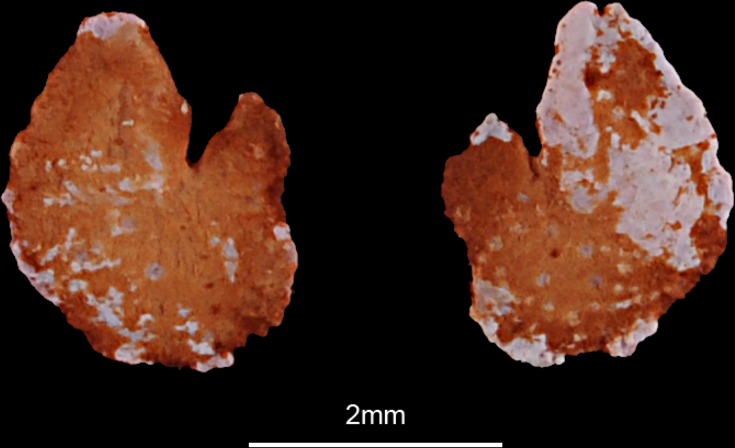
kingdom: Animalia
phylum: Chordata
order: Cypriniformes
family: Cyprinidae
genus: Labeo
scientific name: Labeo senegalensis
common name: African carp
